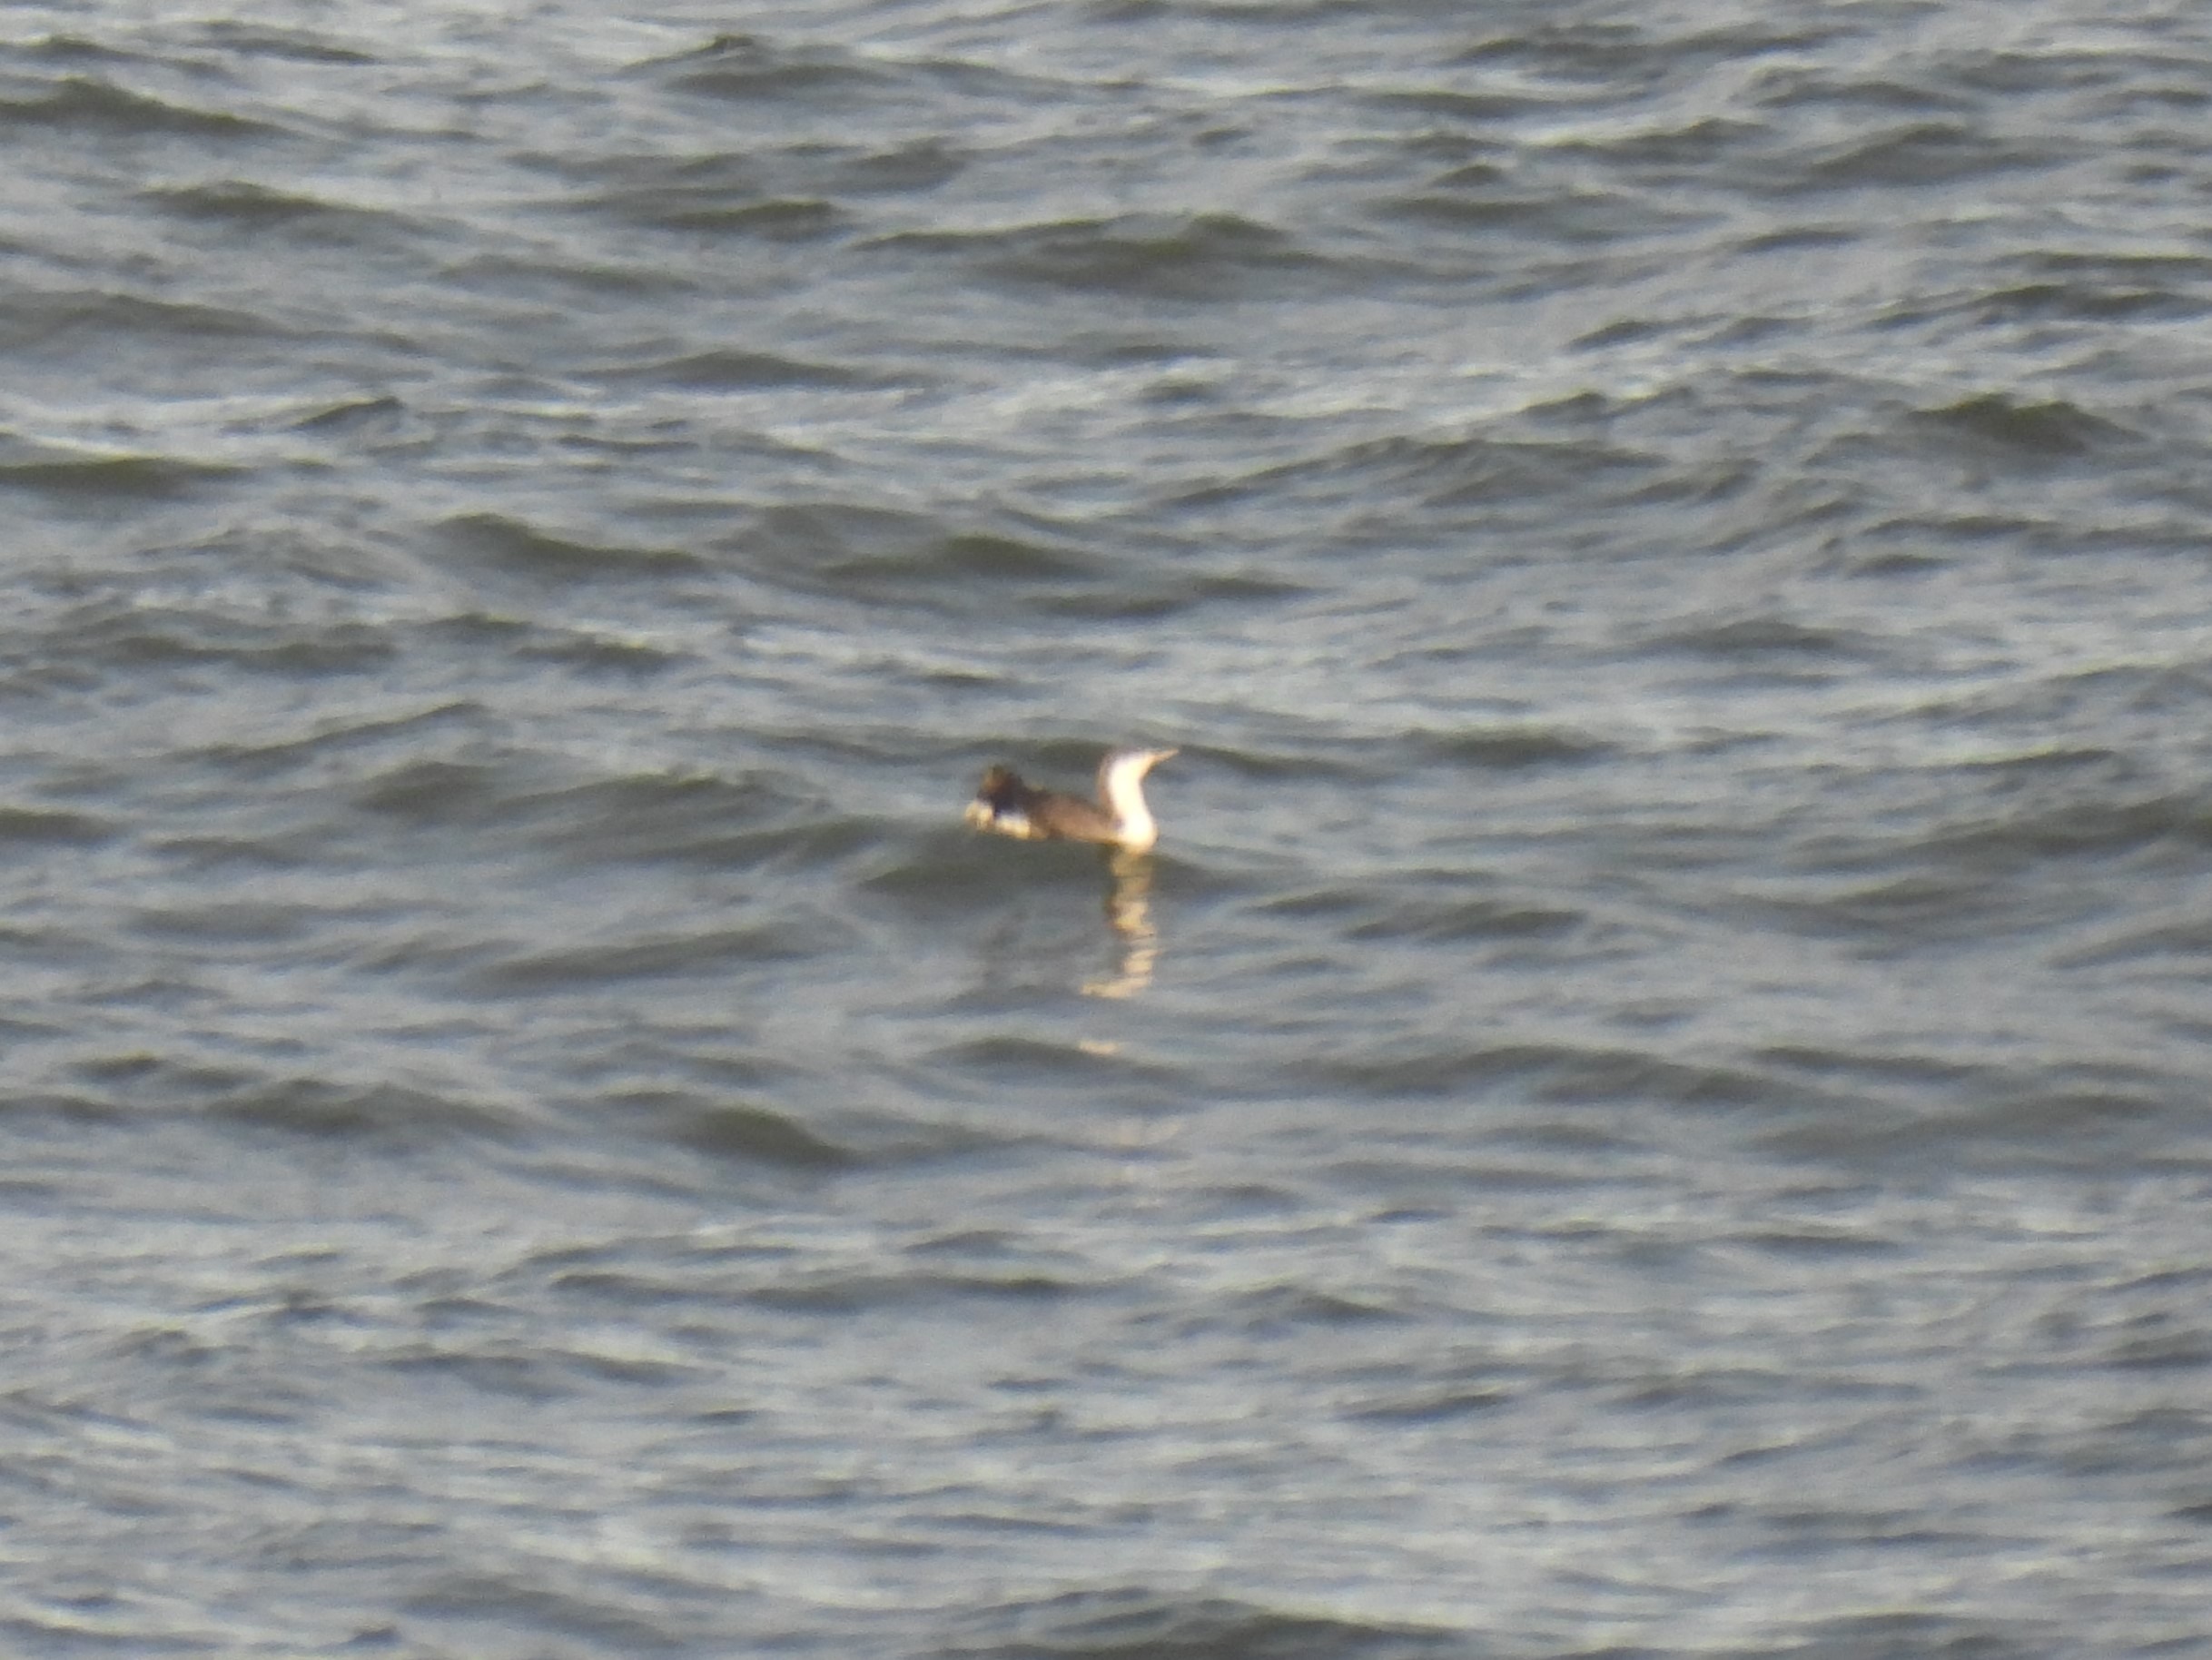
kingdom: Animalia
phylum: Chordata
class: Aves
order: Gaviiformes
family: Gaviidae
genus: Gavia
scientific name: Gavia stellata
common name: Rødstrubet lom
